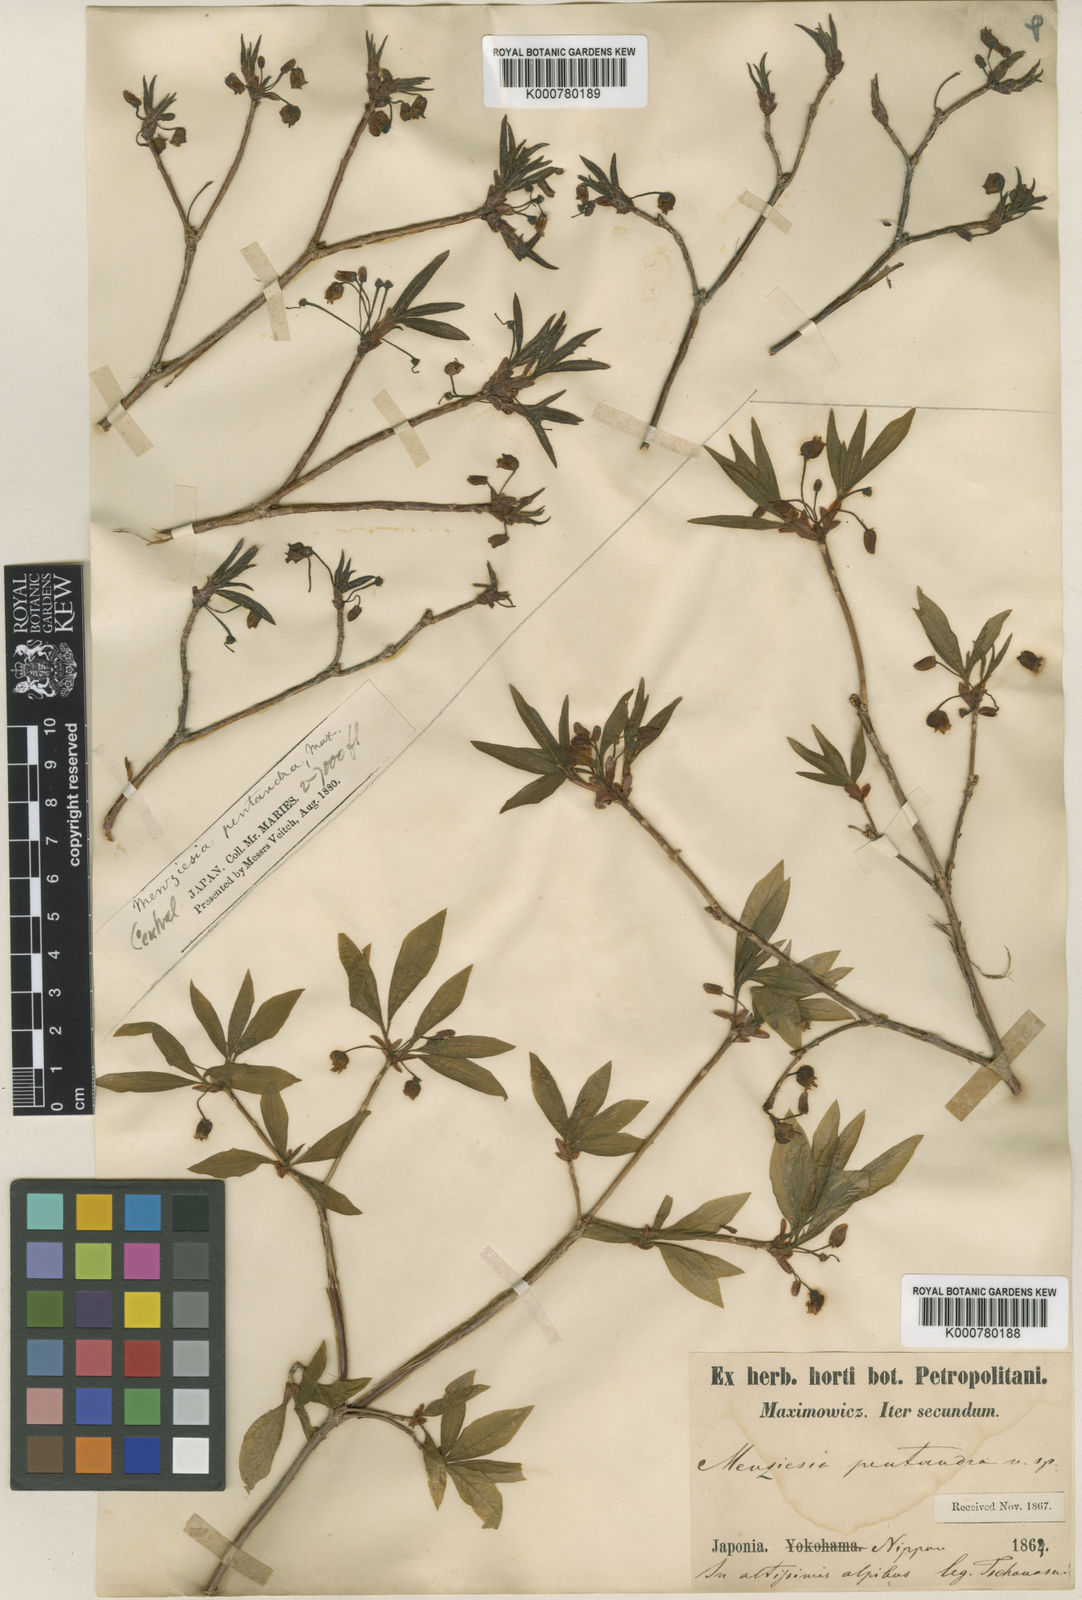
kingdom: Plantae
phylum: Tracheophyta
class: Magnoliopsida
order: Ericales
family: Ericaceae
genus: Rhododendron
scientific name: Rhododendron pentandrum
